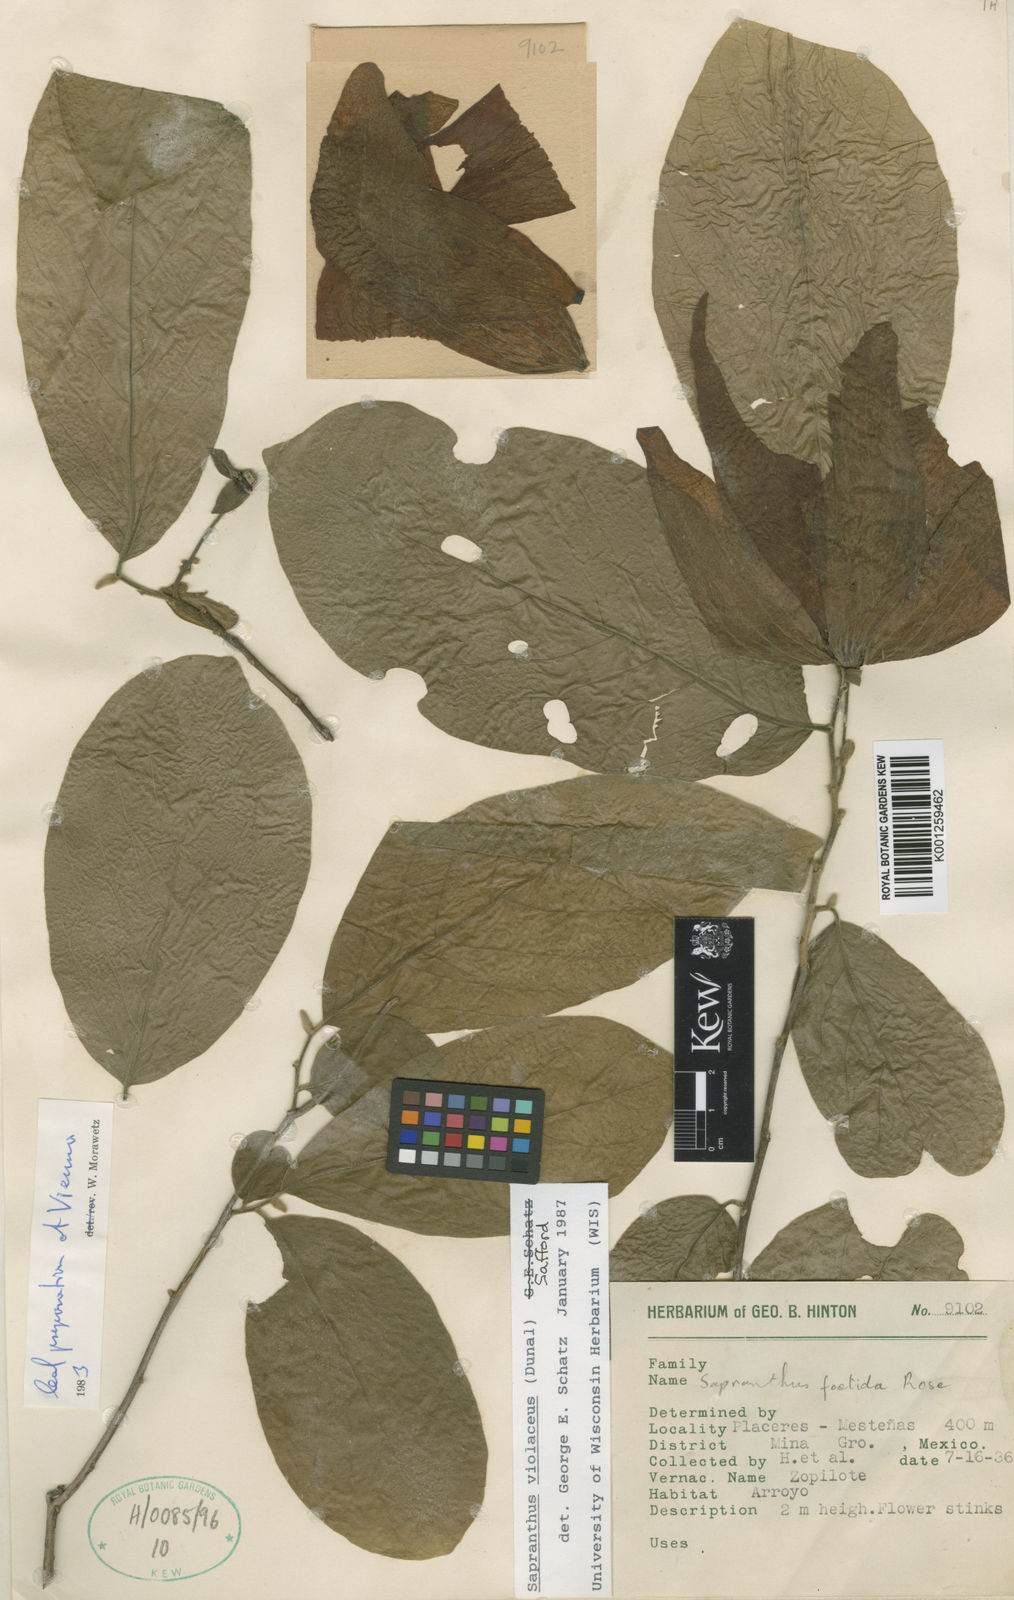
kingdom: Plantae
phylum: Tracheophyta
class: Magnoliopsida
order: Magnoliales
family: Annonaceae
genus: Sapranthus
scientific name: Sapranthus
